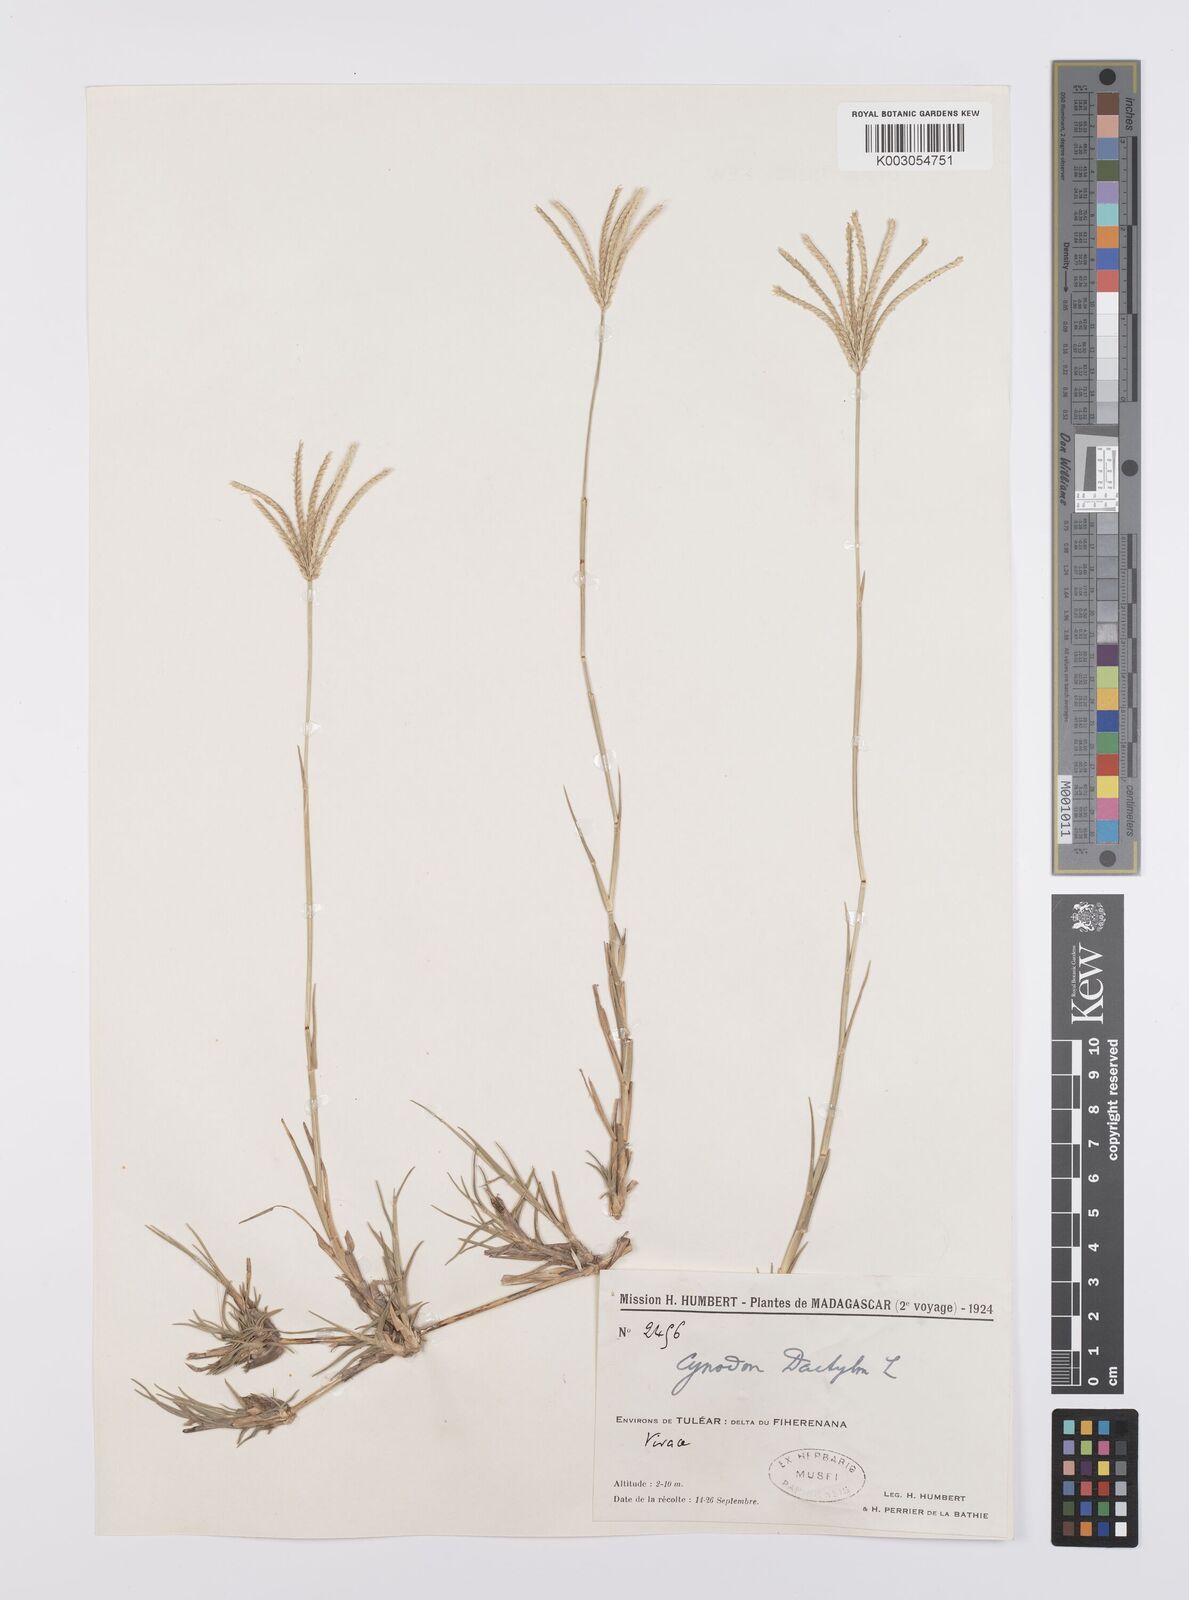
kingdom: Plantae
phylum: Tracheophyta
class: Liliopsida
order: Poales
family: Poaceae
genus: Cynodon
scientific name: Cynodon dactylon
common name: Bermuda grass
